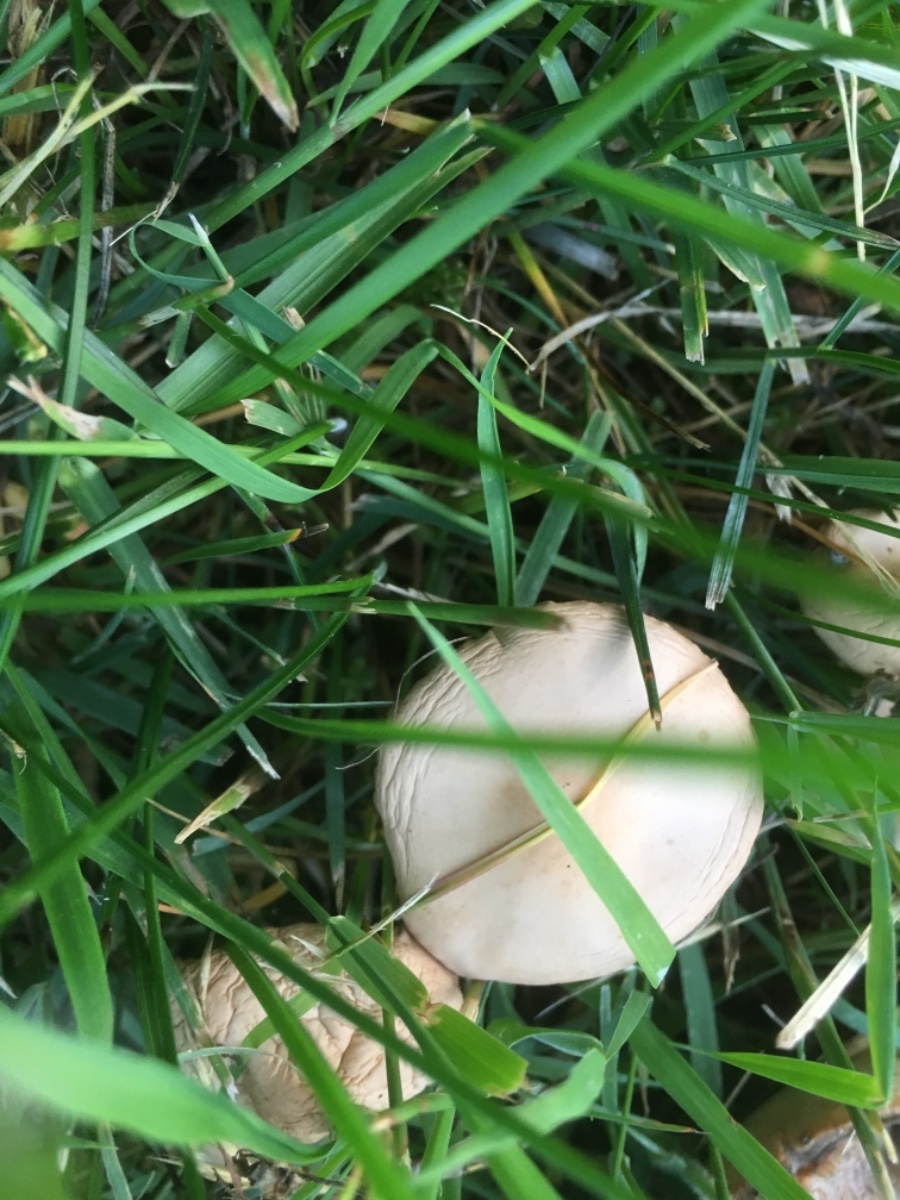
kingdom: Fungi
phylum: Basidiomycota
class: Agaricomycetes
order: Agaricales
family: Marasmiaceae
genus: Marasmius
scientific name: Marasmius oreades
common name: elledans-bruskhat
